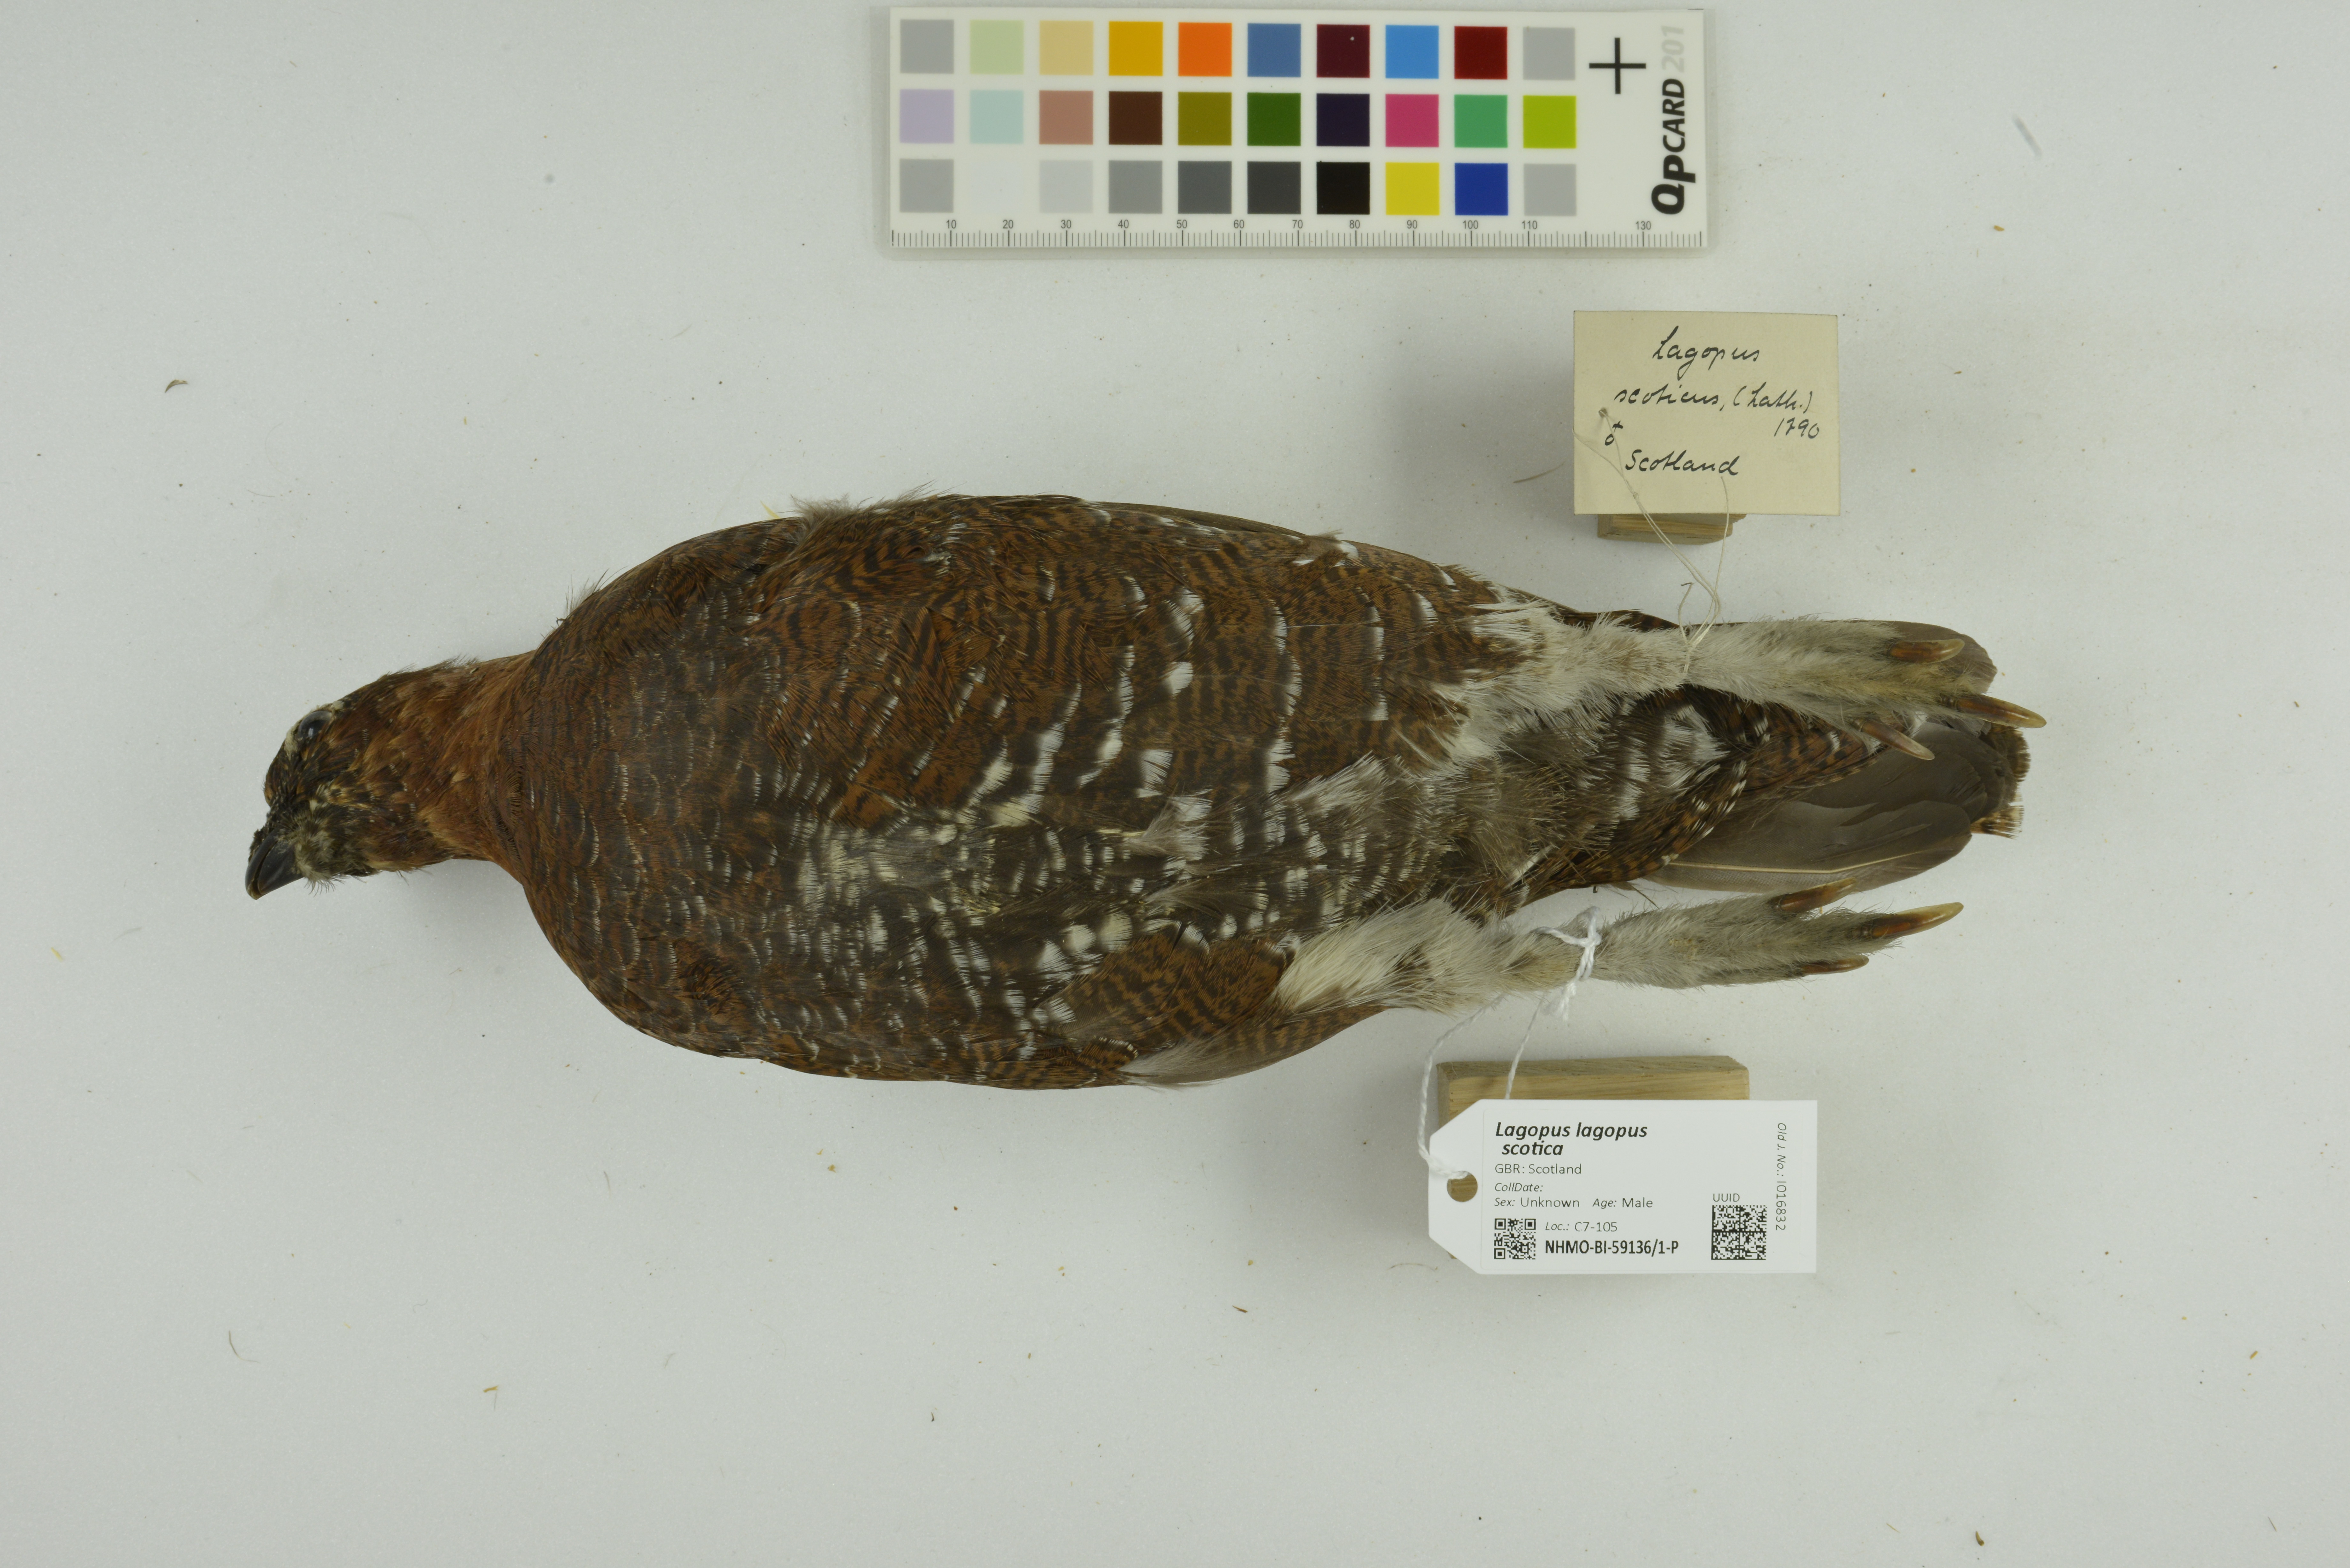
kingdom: Animalia
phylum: Chordata
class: Aves
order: Galliformes
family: Phasianidae
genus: Lagopus
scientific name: Lagopus lagopus
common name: Willow ptarmigan
